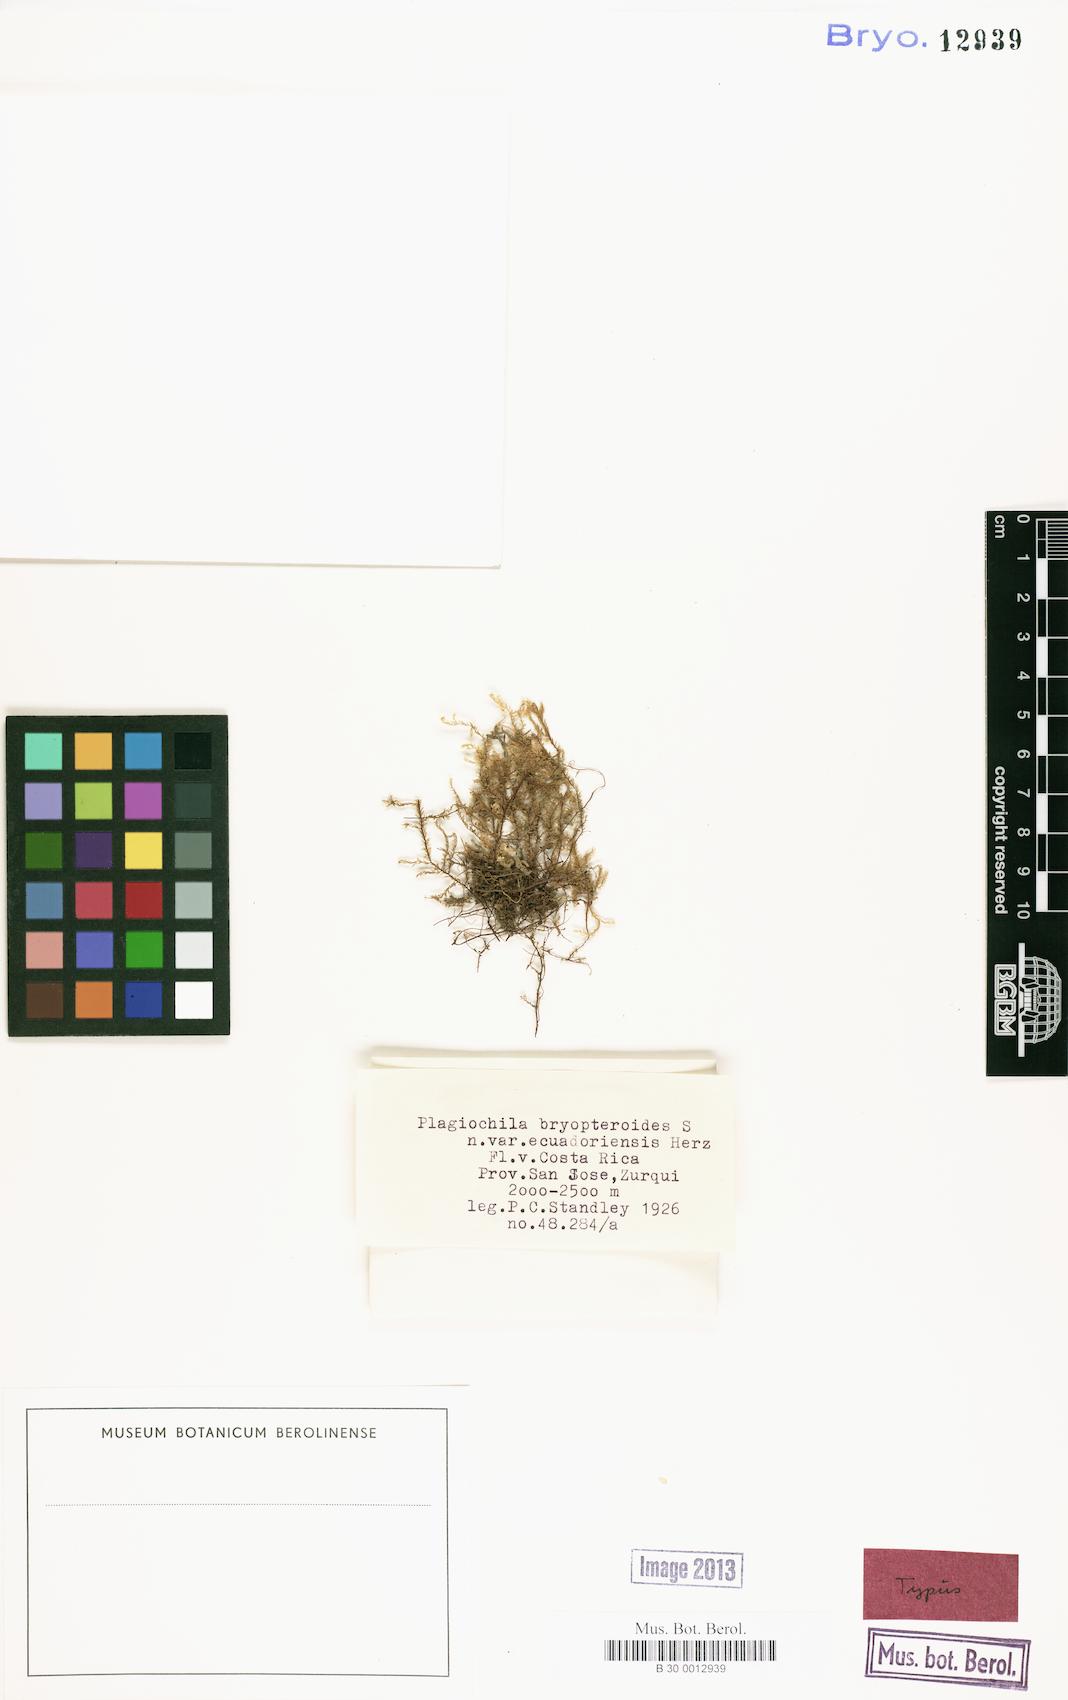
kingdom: Plantae
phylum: Marchantiophyta
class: Jungermanniopsida
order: Jungermanniales
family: Plagiochilaceae
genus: Plagiochila
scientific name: Plagiochila deflexirama
